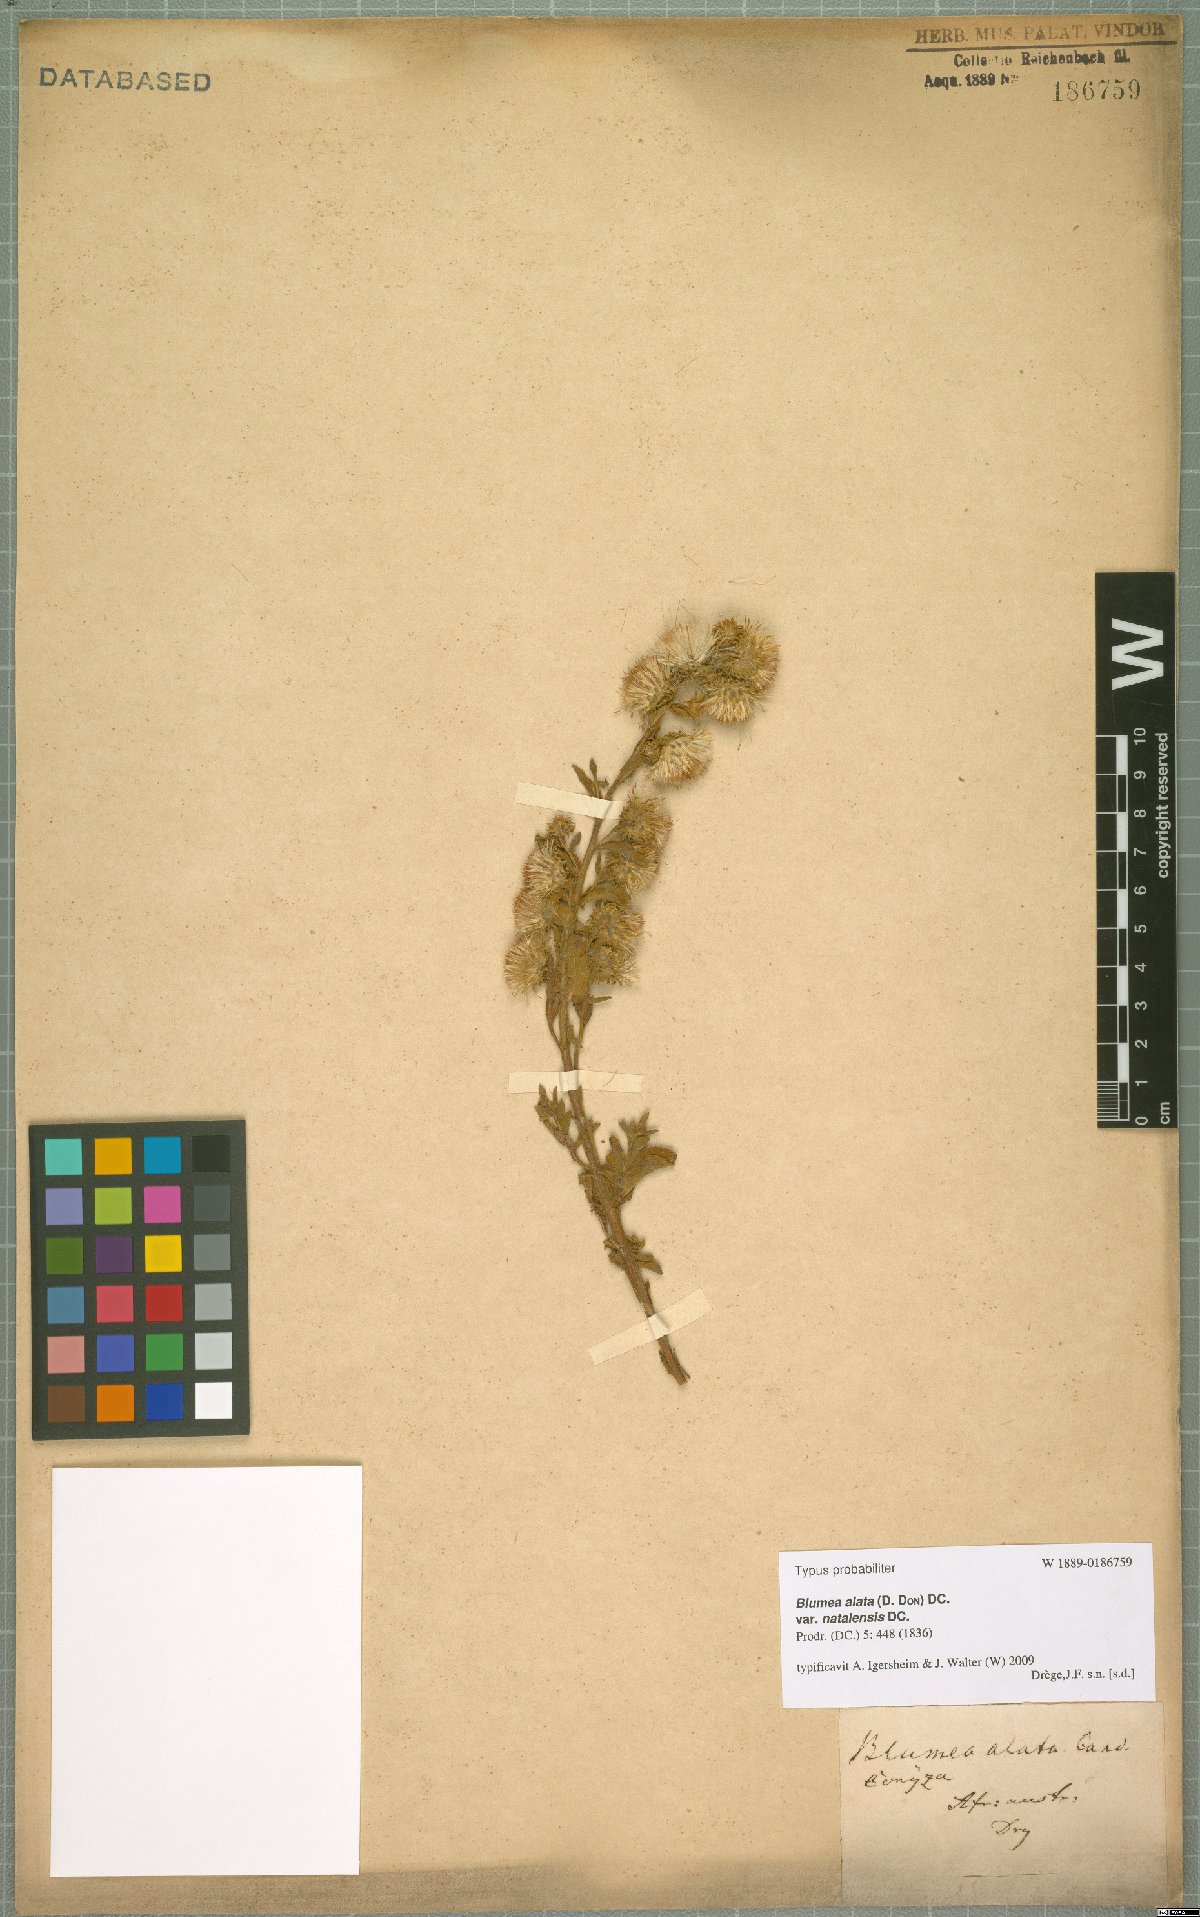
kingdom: Plantae
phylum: Tracheophyta
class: Magnoliopsida
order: Asterales
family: Asteraceae
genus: Laggera
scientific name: Laggera crispata
